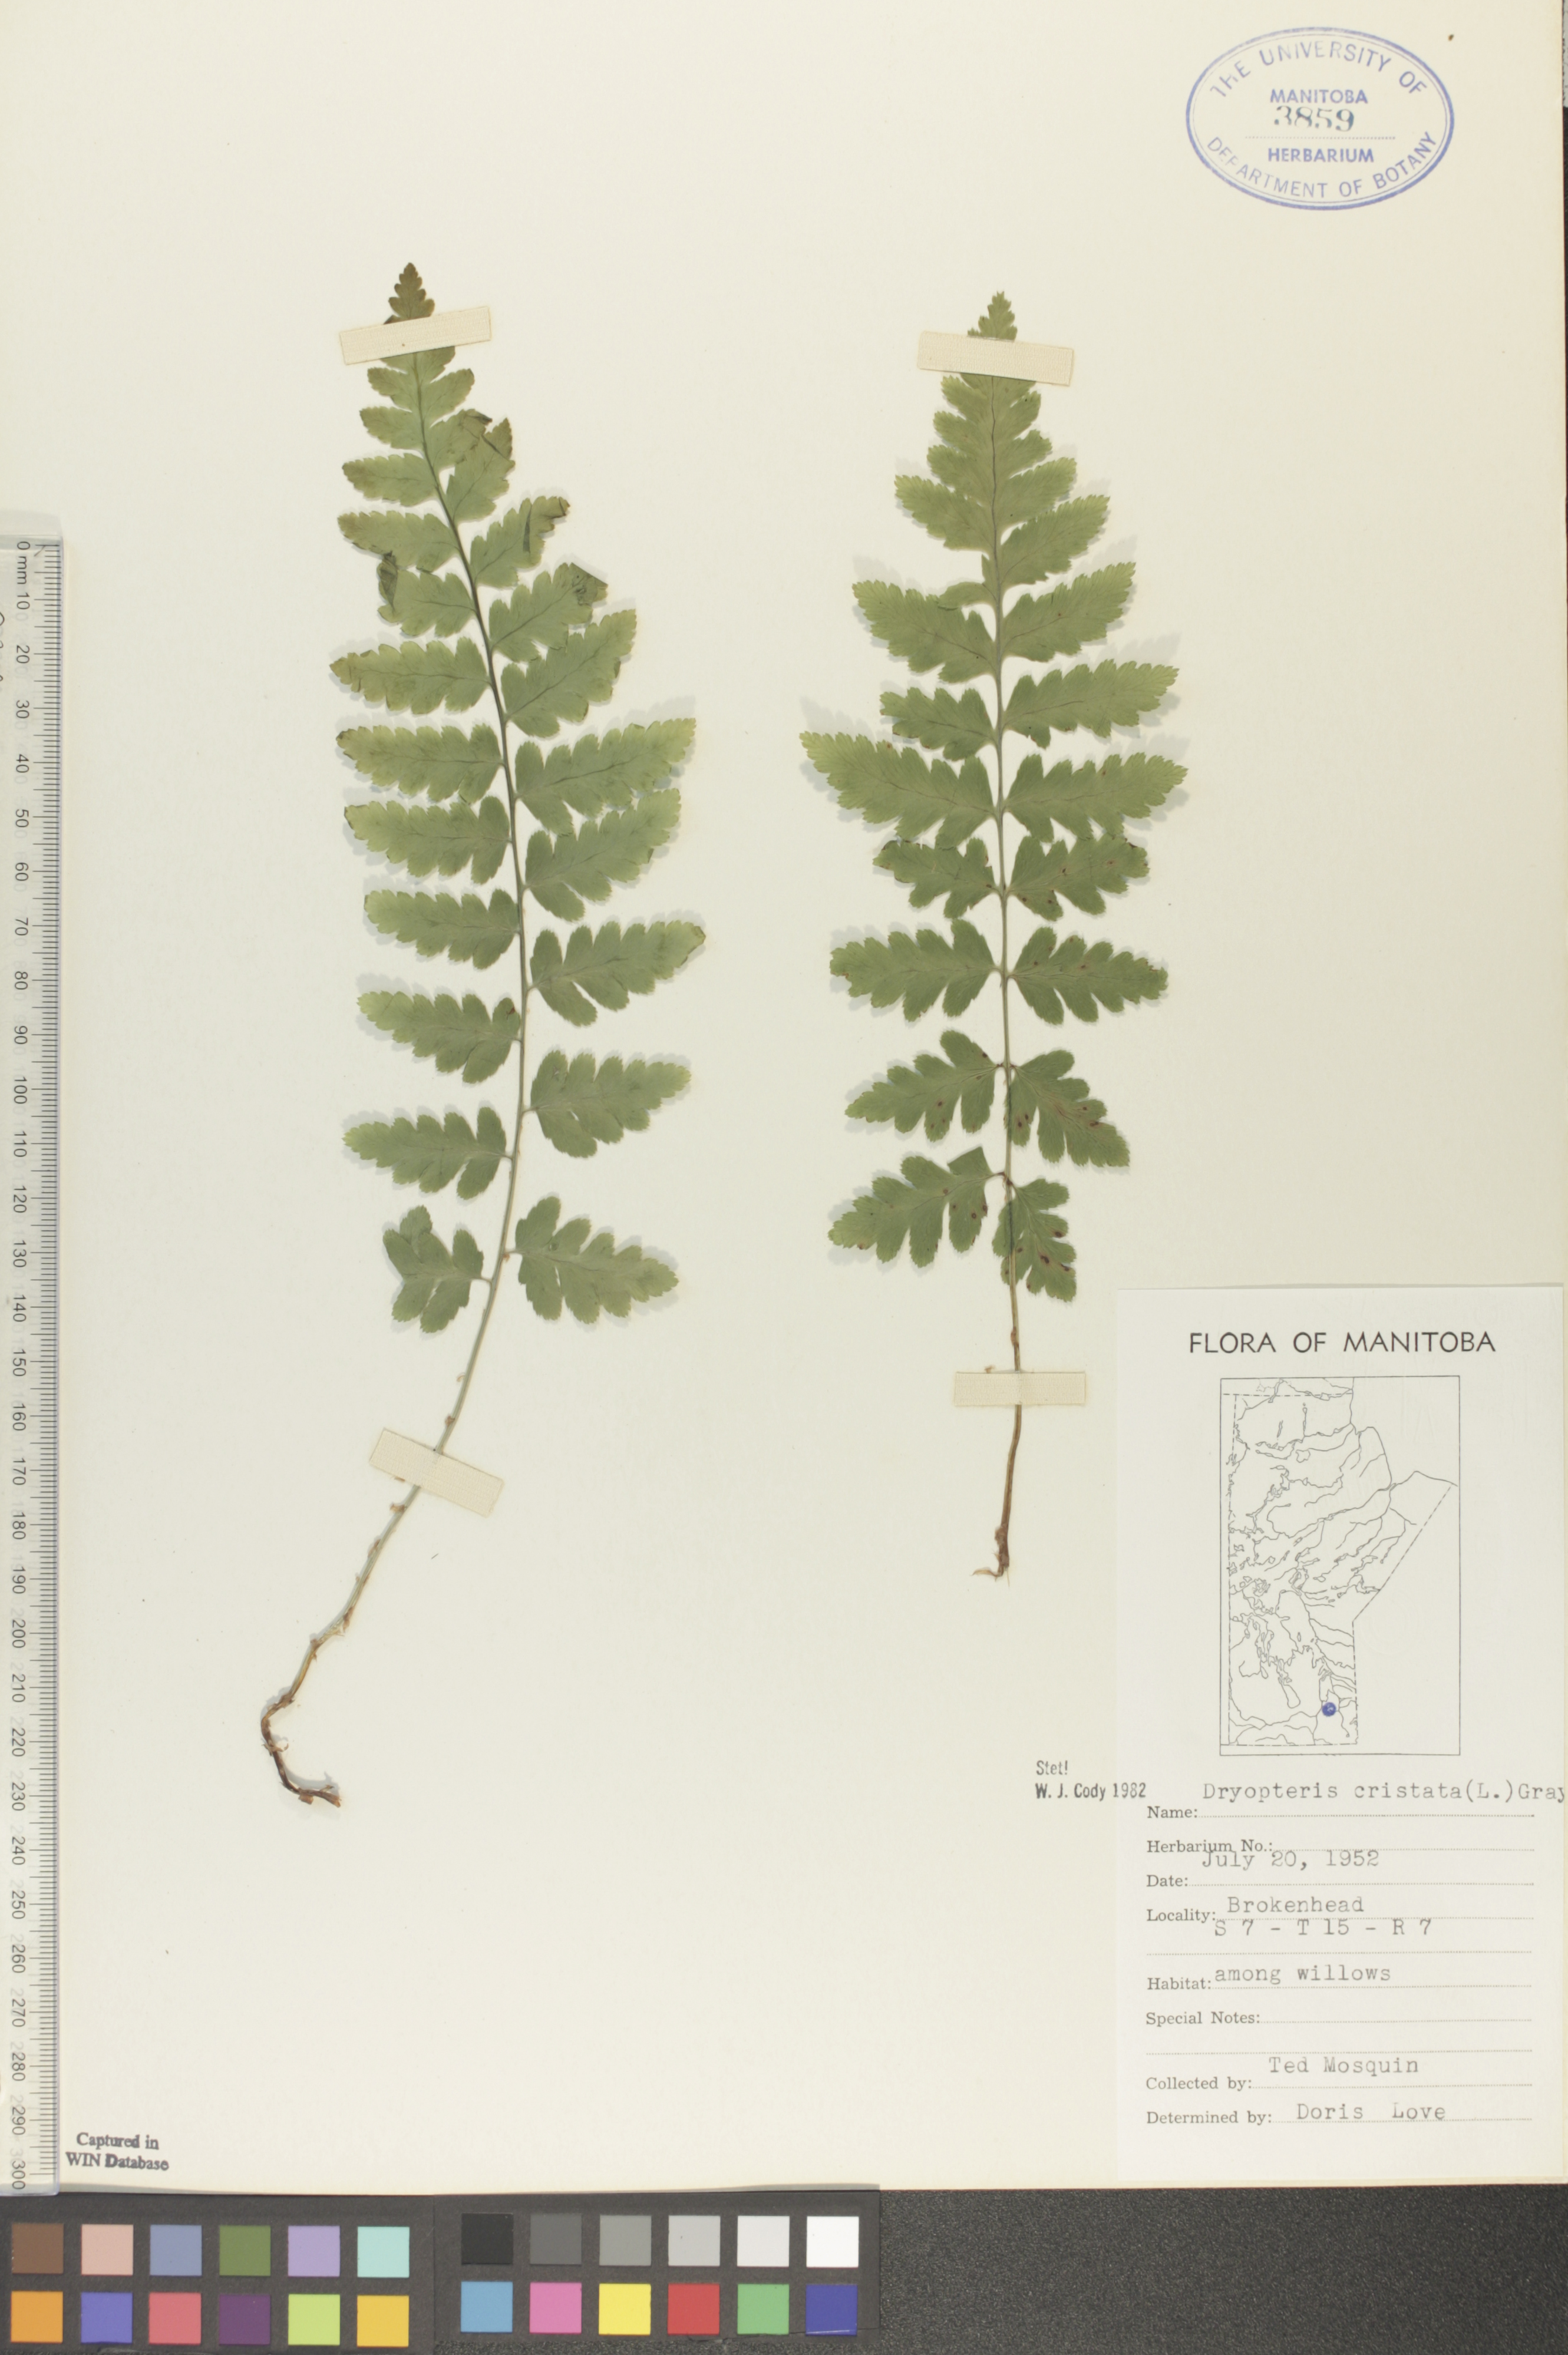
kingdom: Plantae
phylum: Tracheophyta
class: Polypodiopsida
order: Polypodiales
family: Dryopteridaceae
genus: Dryopteris
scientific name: Dryopteris cristata
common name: Crested wood fern
